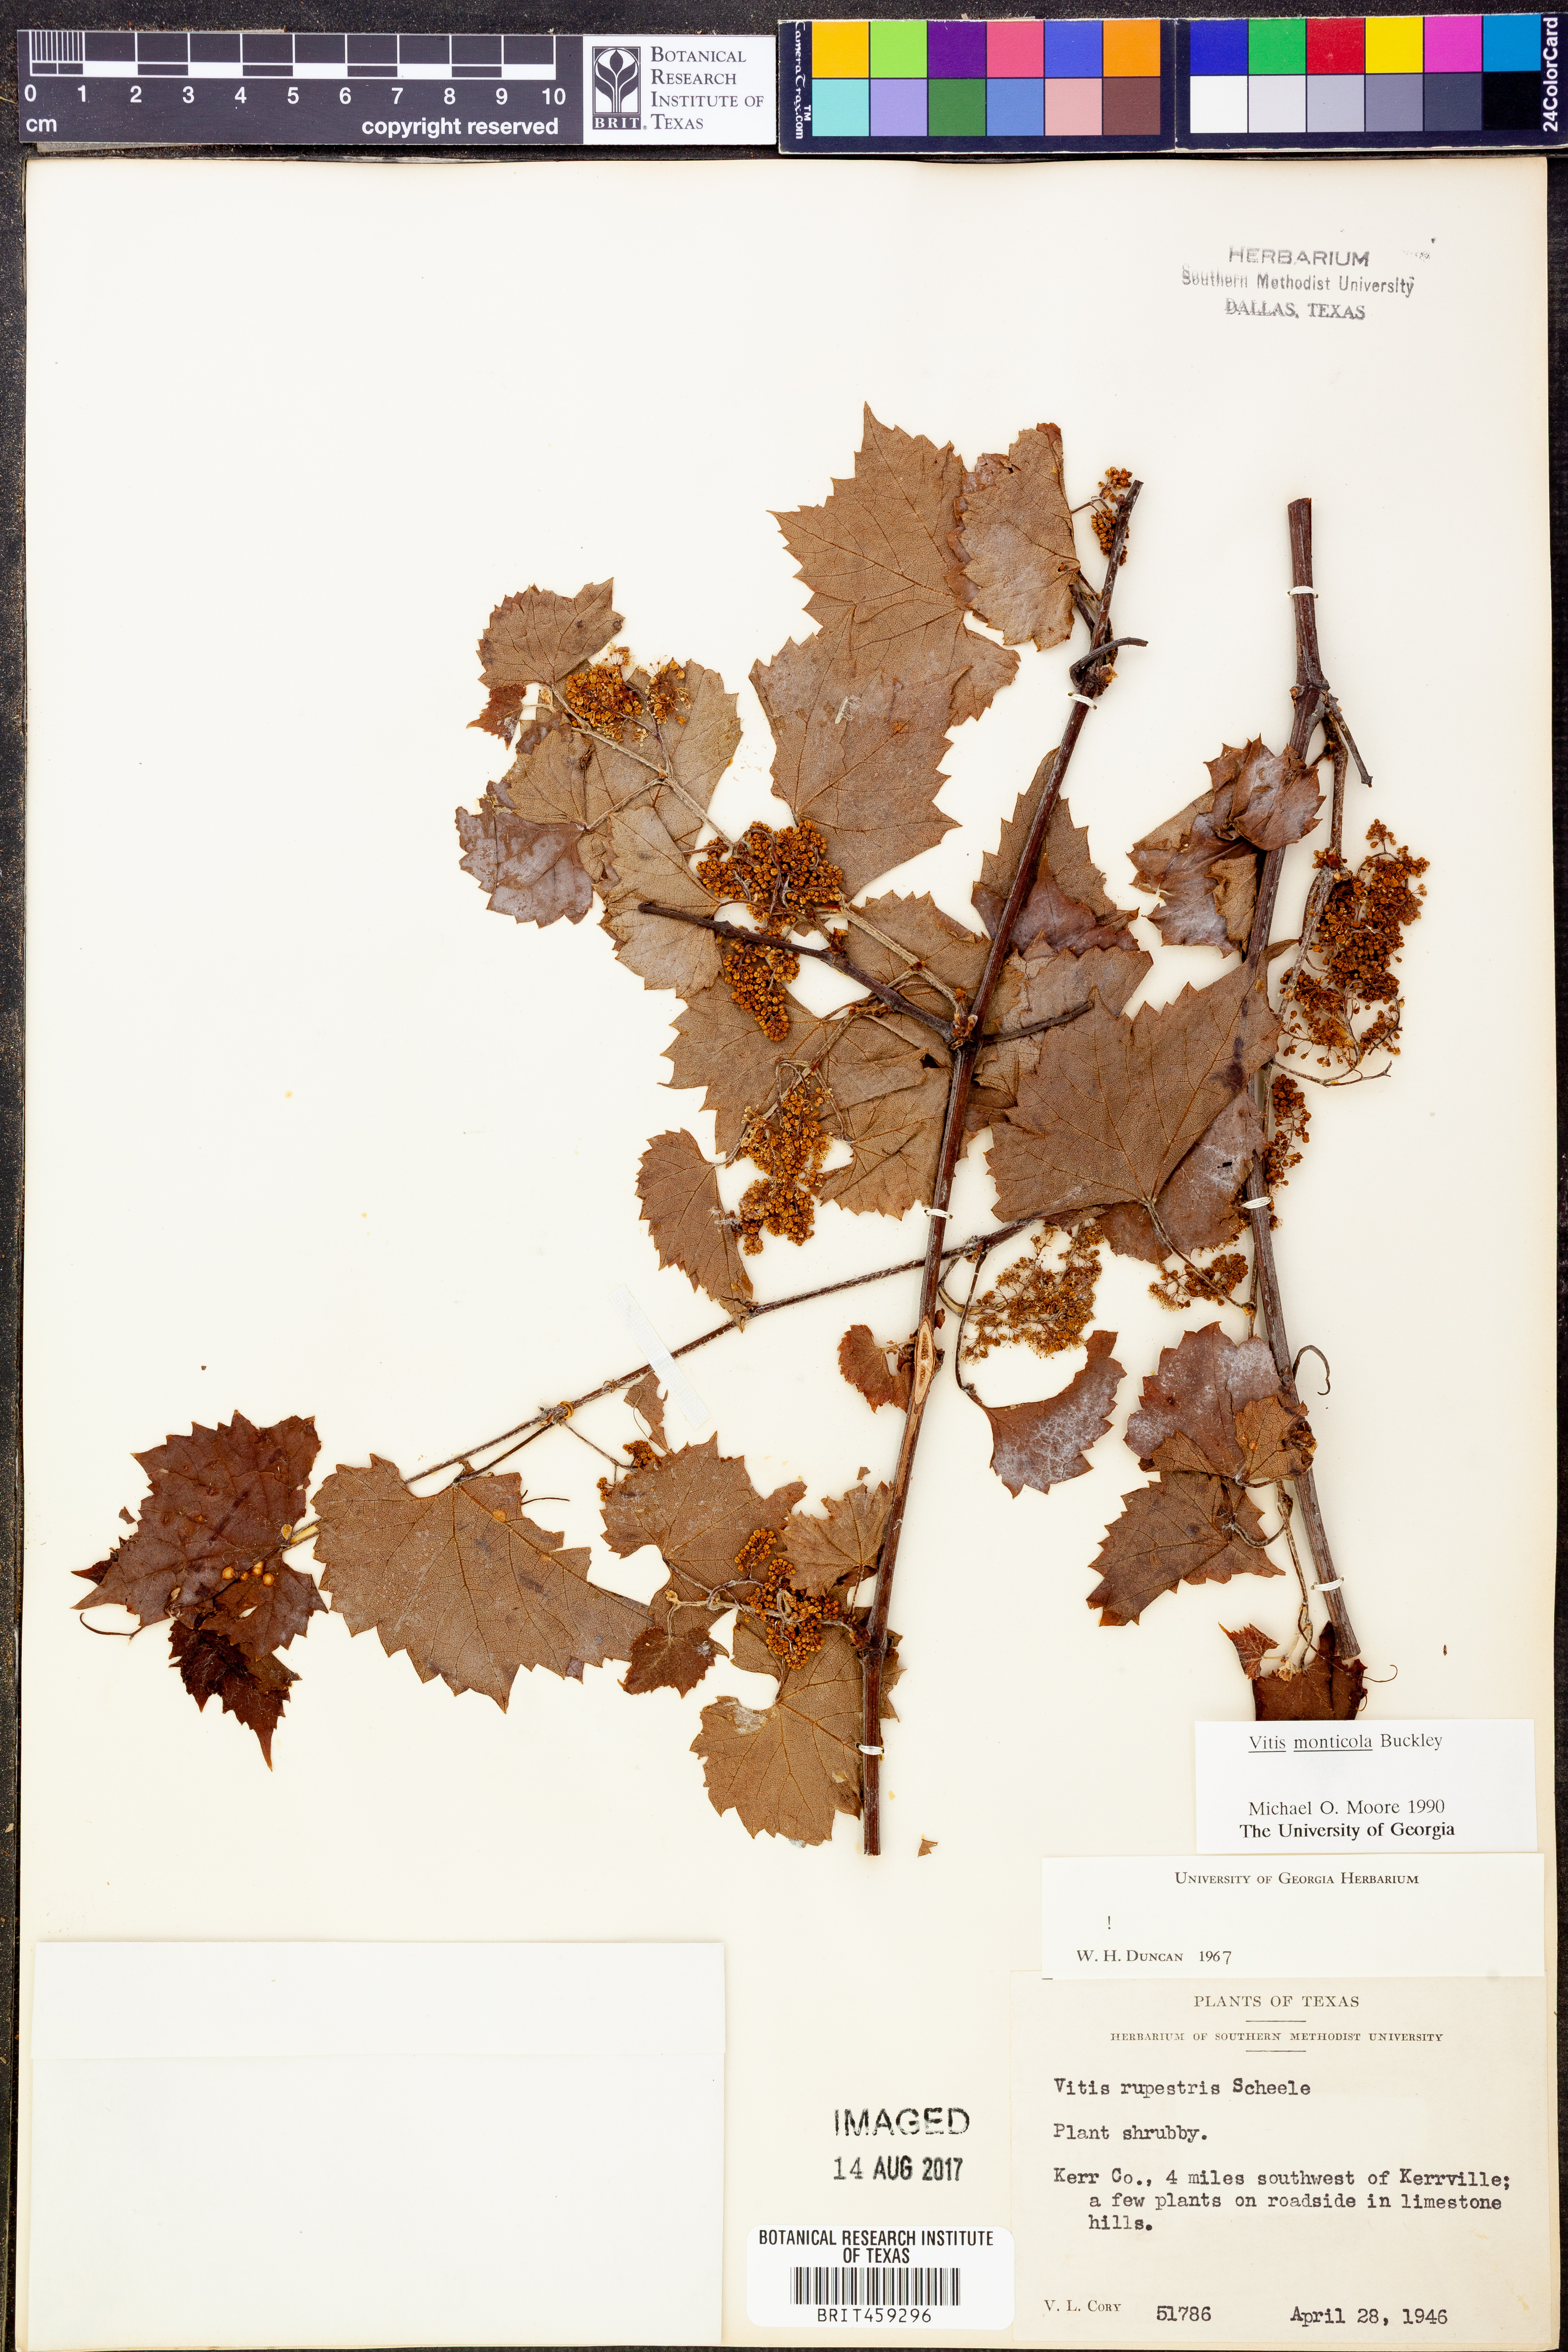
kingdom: Plantae
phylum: Tracheophyta
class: Magnoliopsida
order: Vitales
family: Vitaceae
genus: Vitis
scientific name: Vitis monticola
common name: Mountain grape
